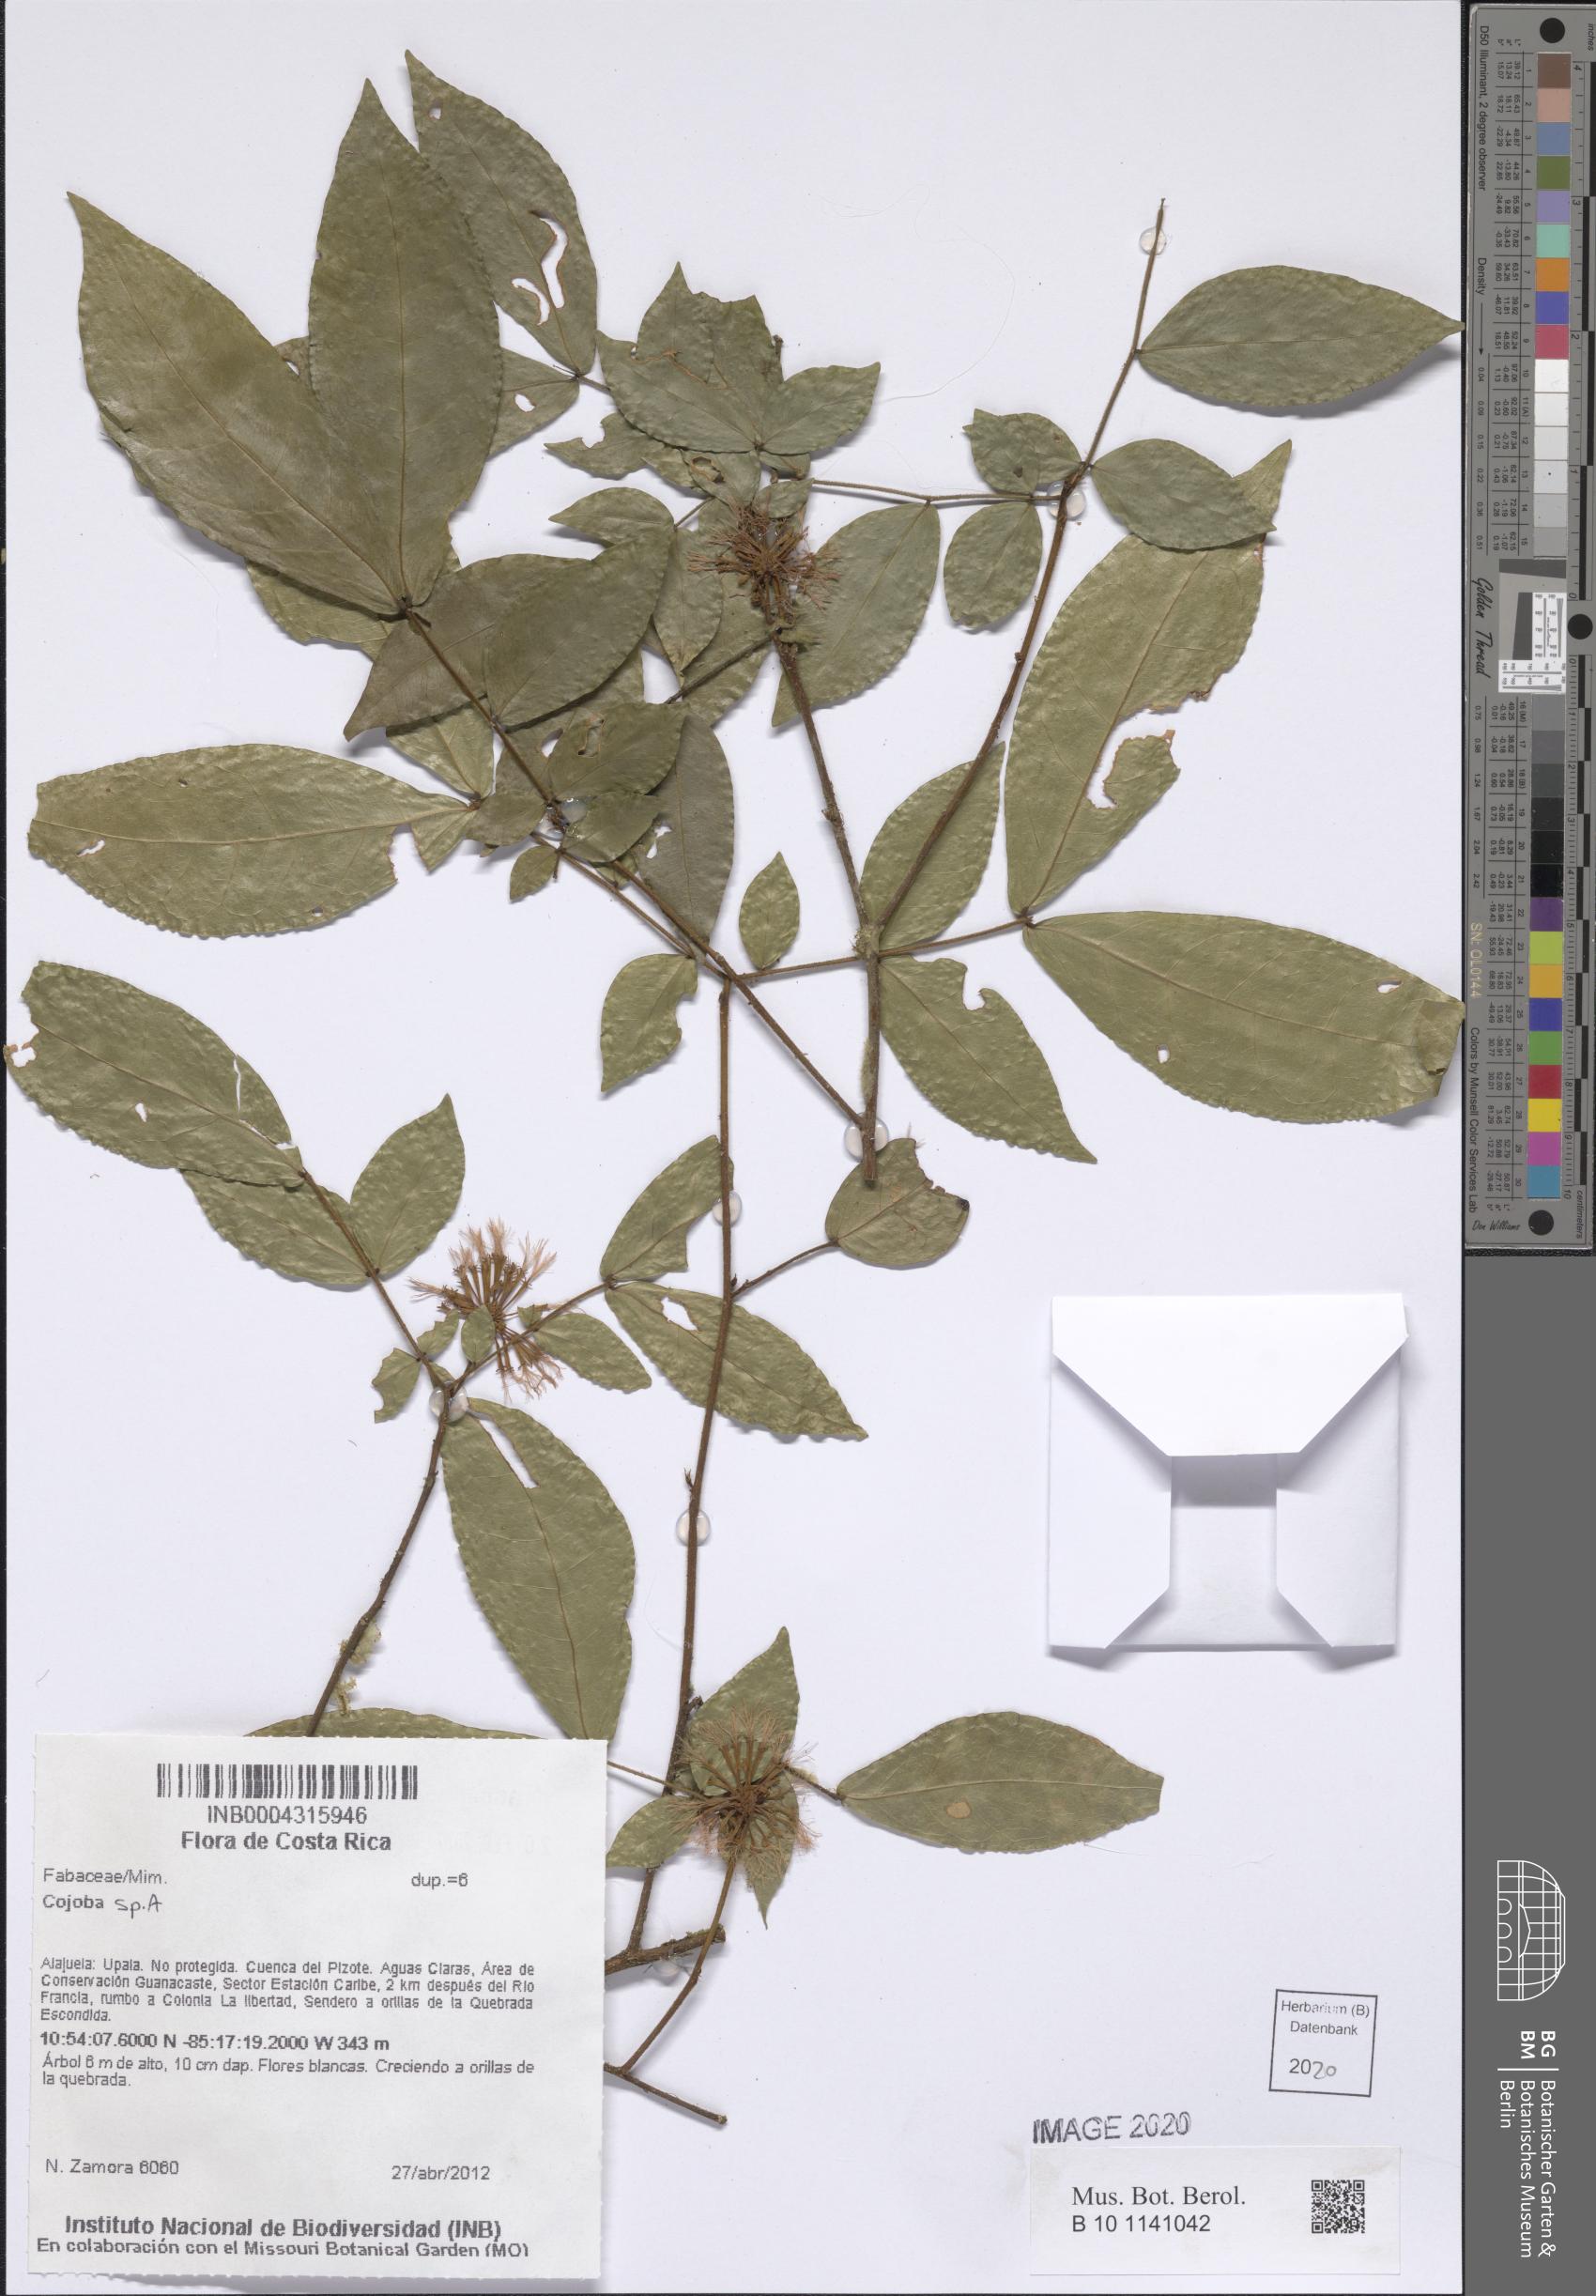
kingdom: Plantae
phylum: Tracheophyta
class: Magnoliopsida
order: Fabales
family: Fabaceae
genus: Cojoba
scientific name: Cojoba
